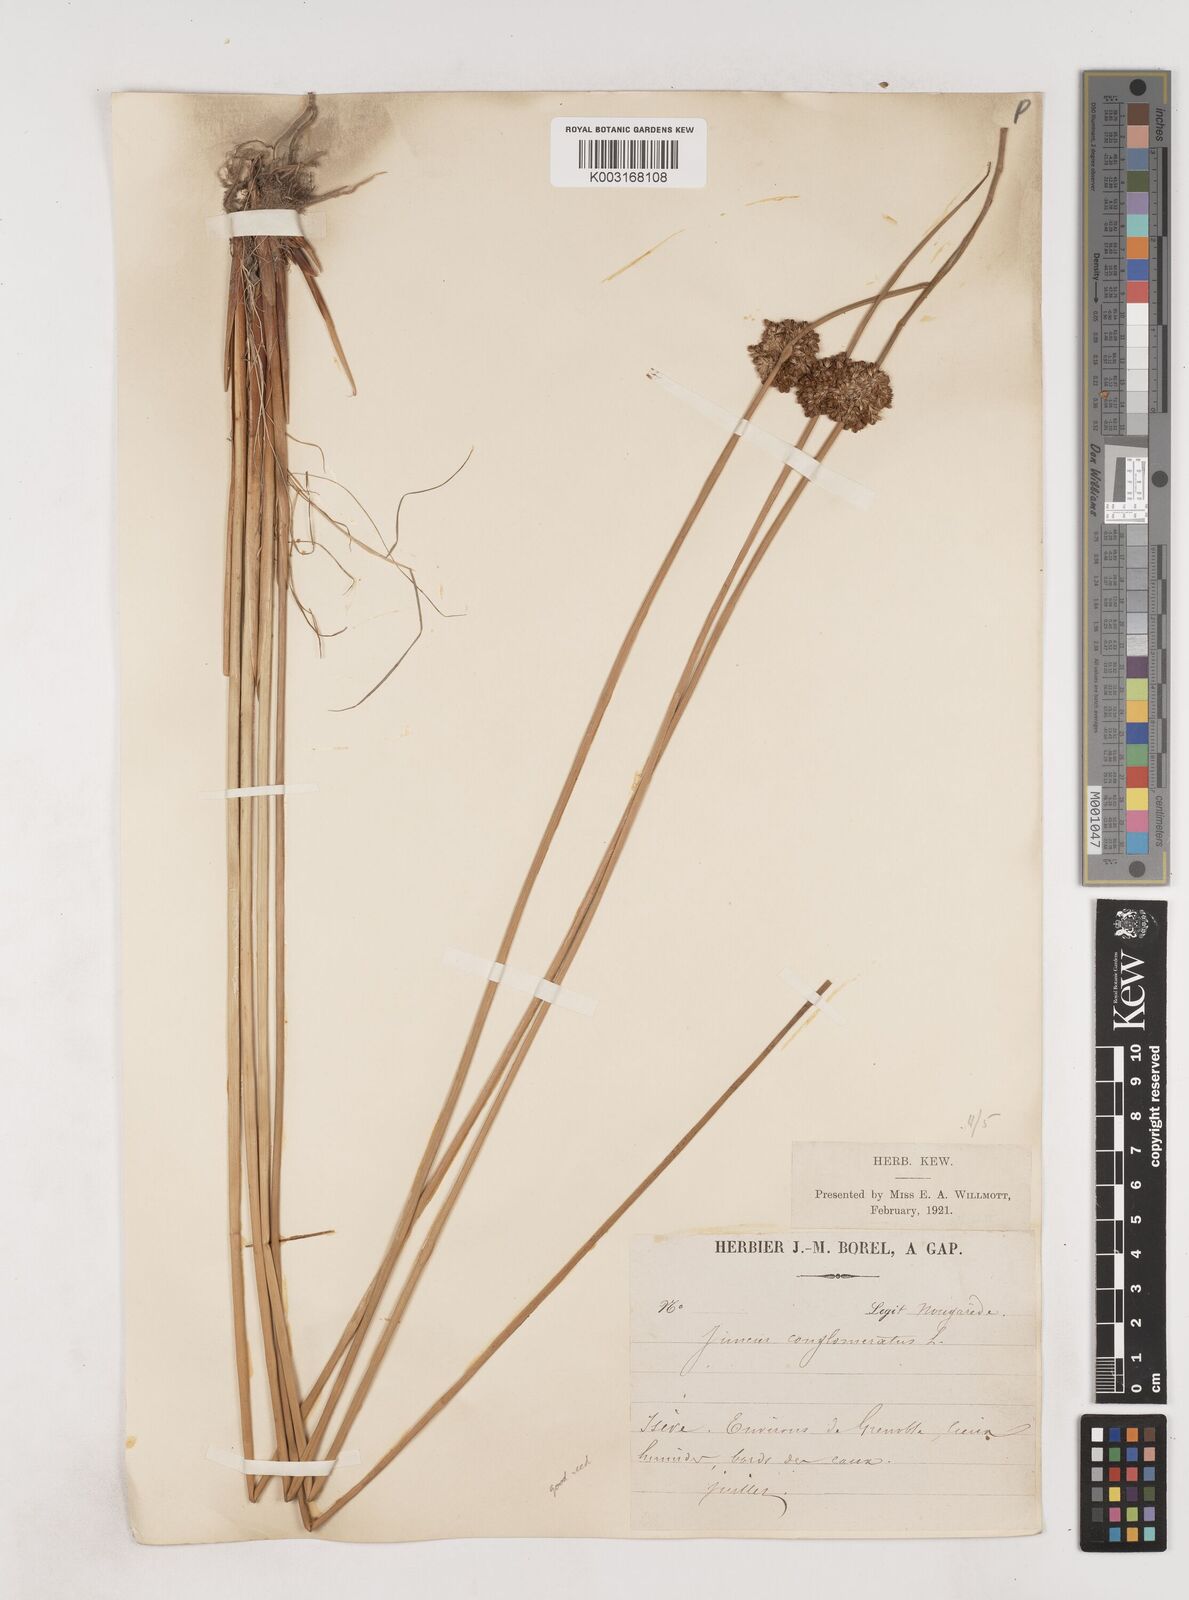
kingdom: Plantae
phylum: Tracheophyta
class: Liliopsida
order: Poales
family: Juncaceae
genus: Juncus
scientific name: Juncus conglomeratus
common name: Compact rush
